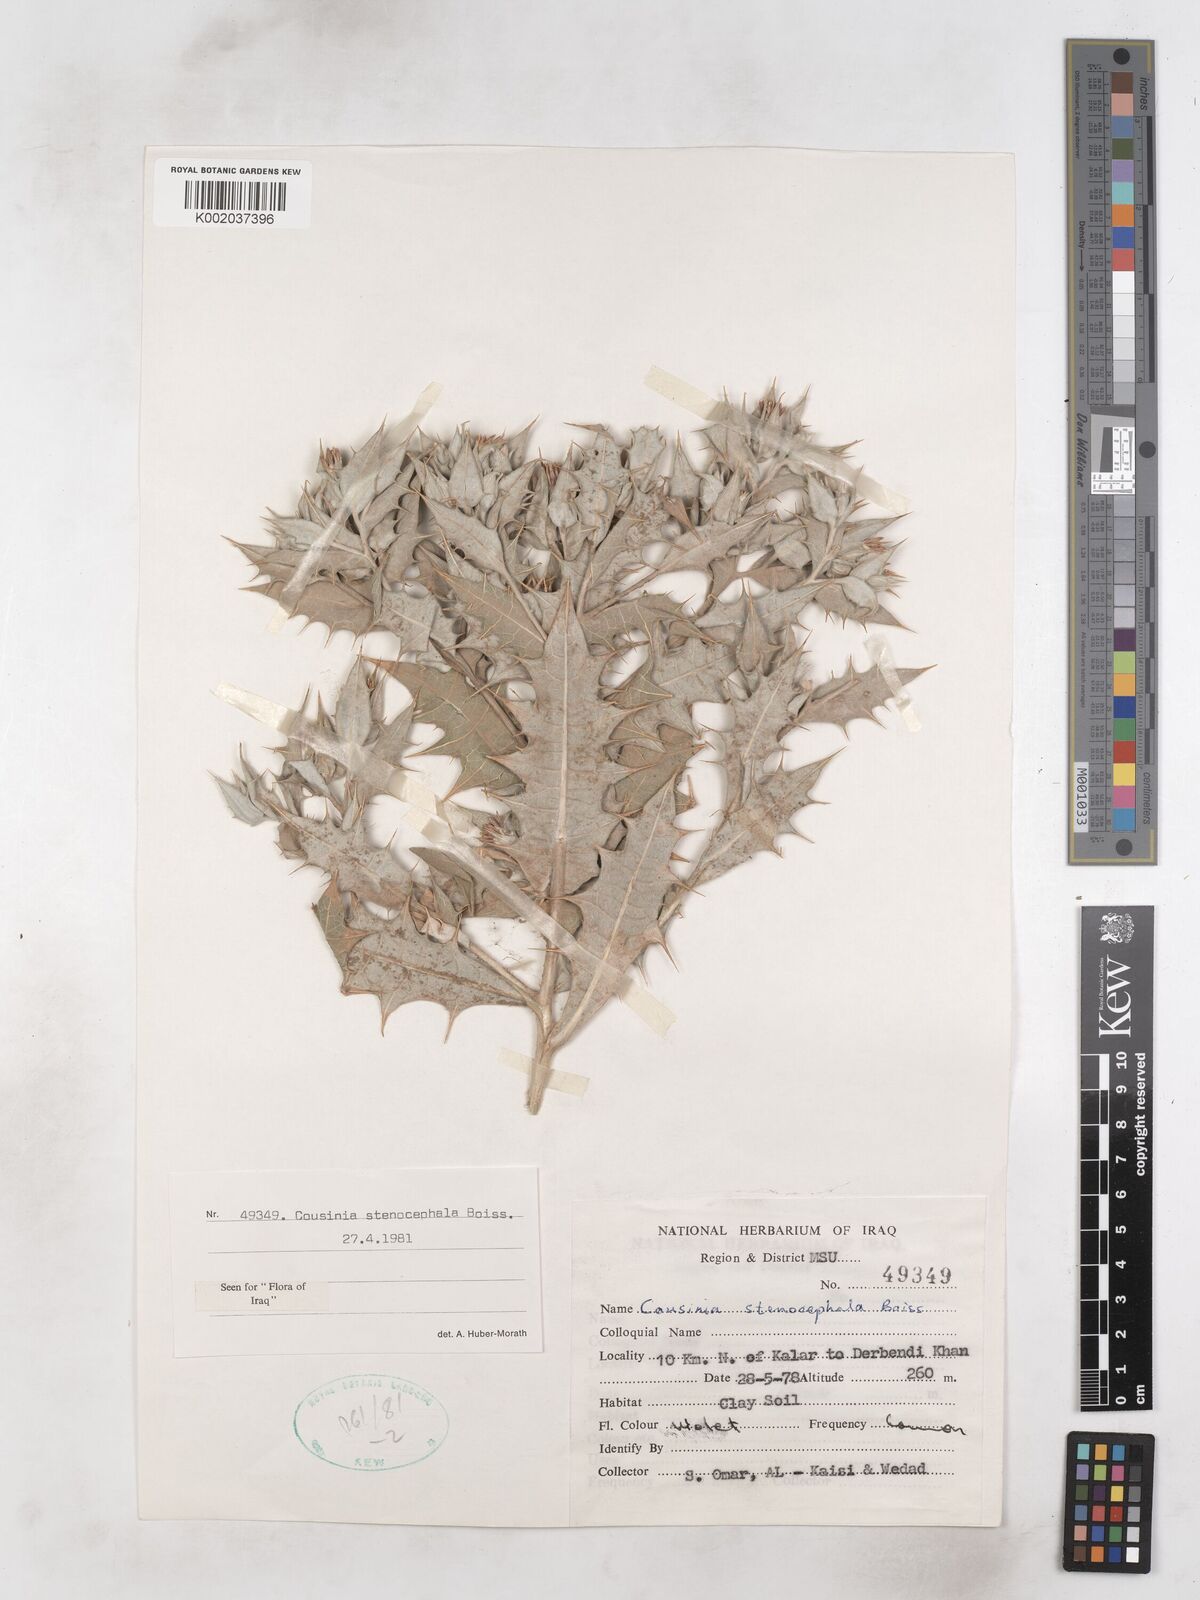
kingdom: Plantae
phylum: Tracheophyta
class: Magnoliopsida
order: Asterales
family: Asteraceae
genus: Cousinia
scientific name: Cousinia stenocephala
